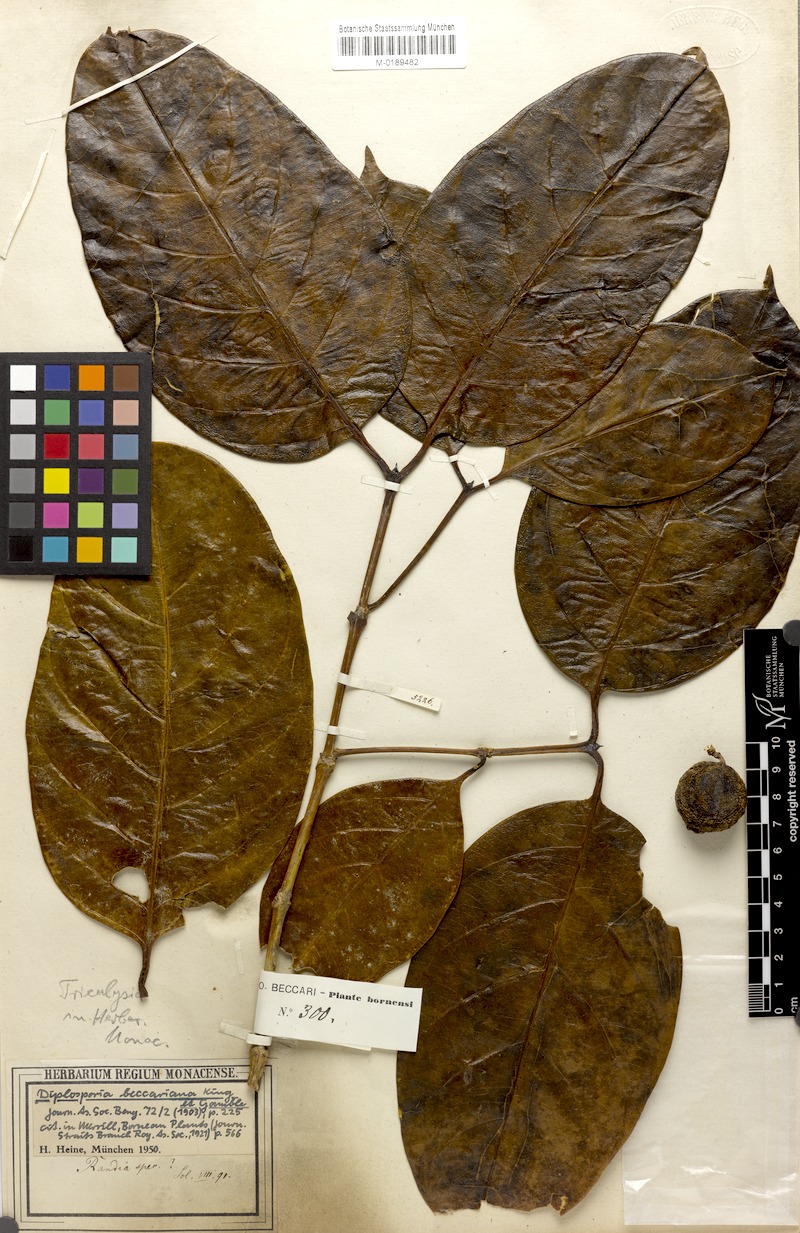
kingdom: Plantae
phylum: Tracheophyta
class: Magnoliopsida
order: Gentianales
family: Rubiaceae
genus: Discospermum
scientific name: Discospermum beccarianum
